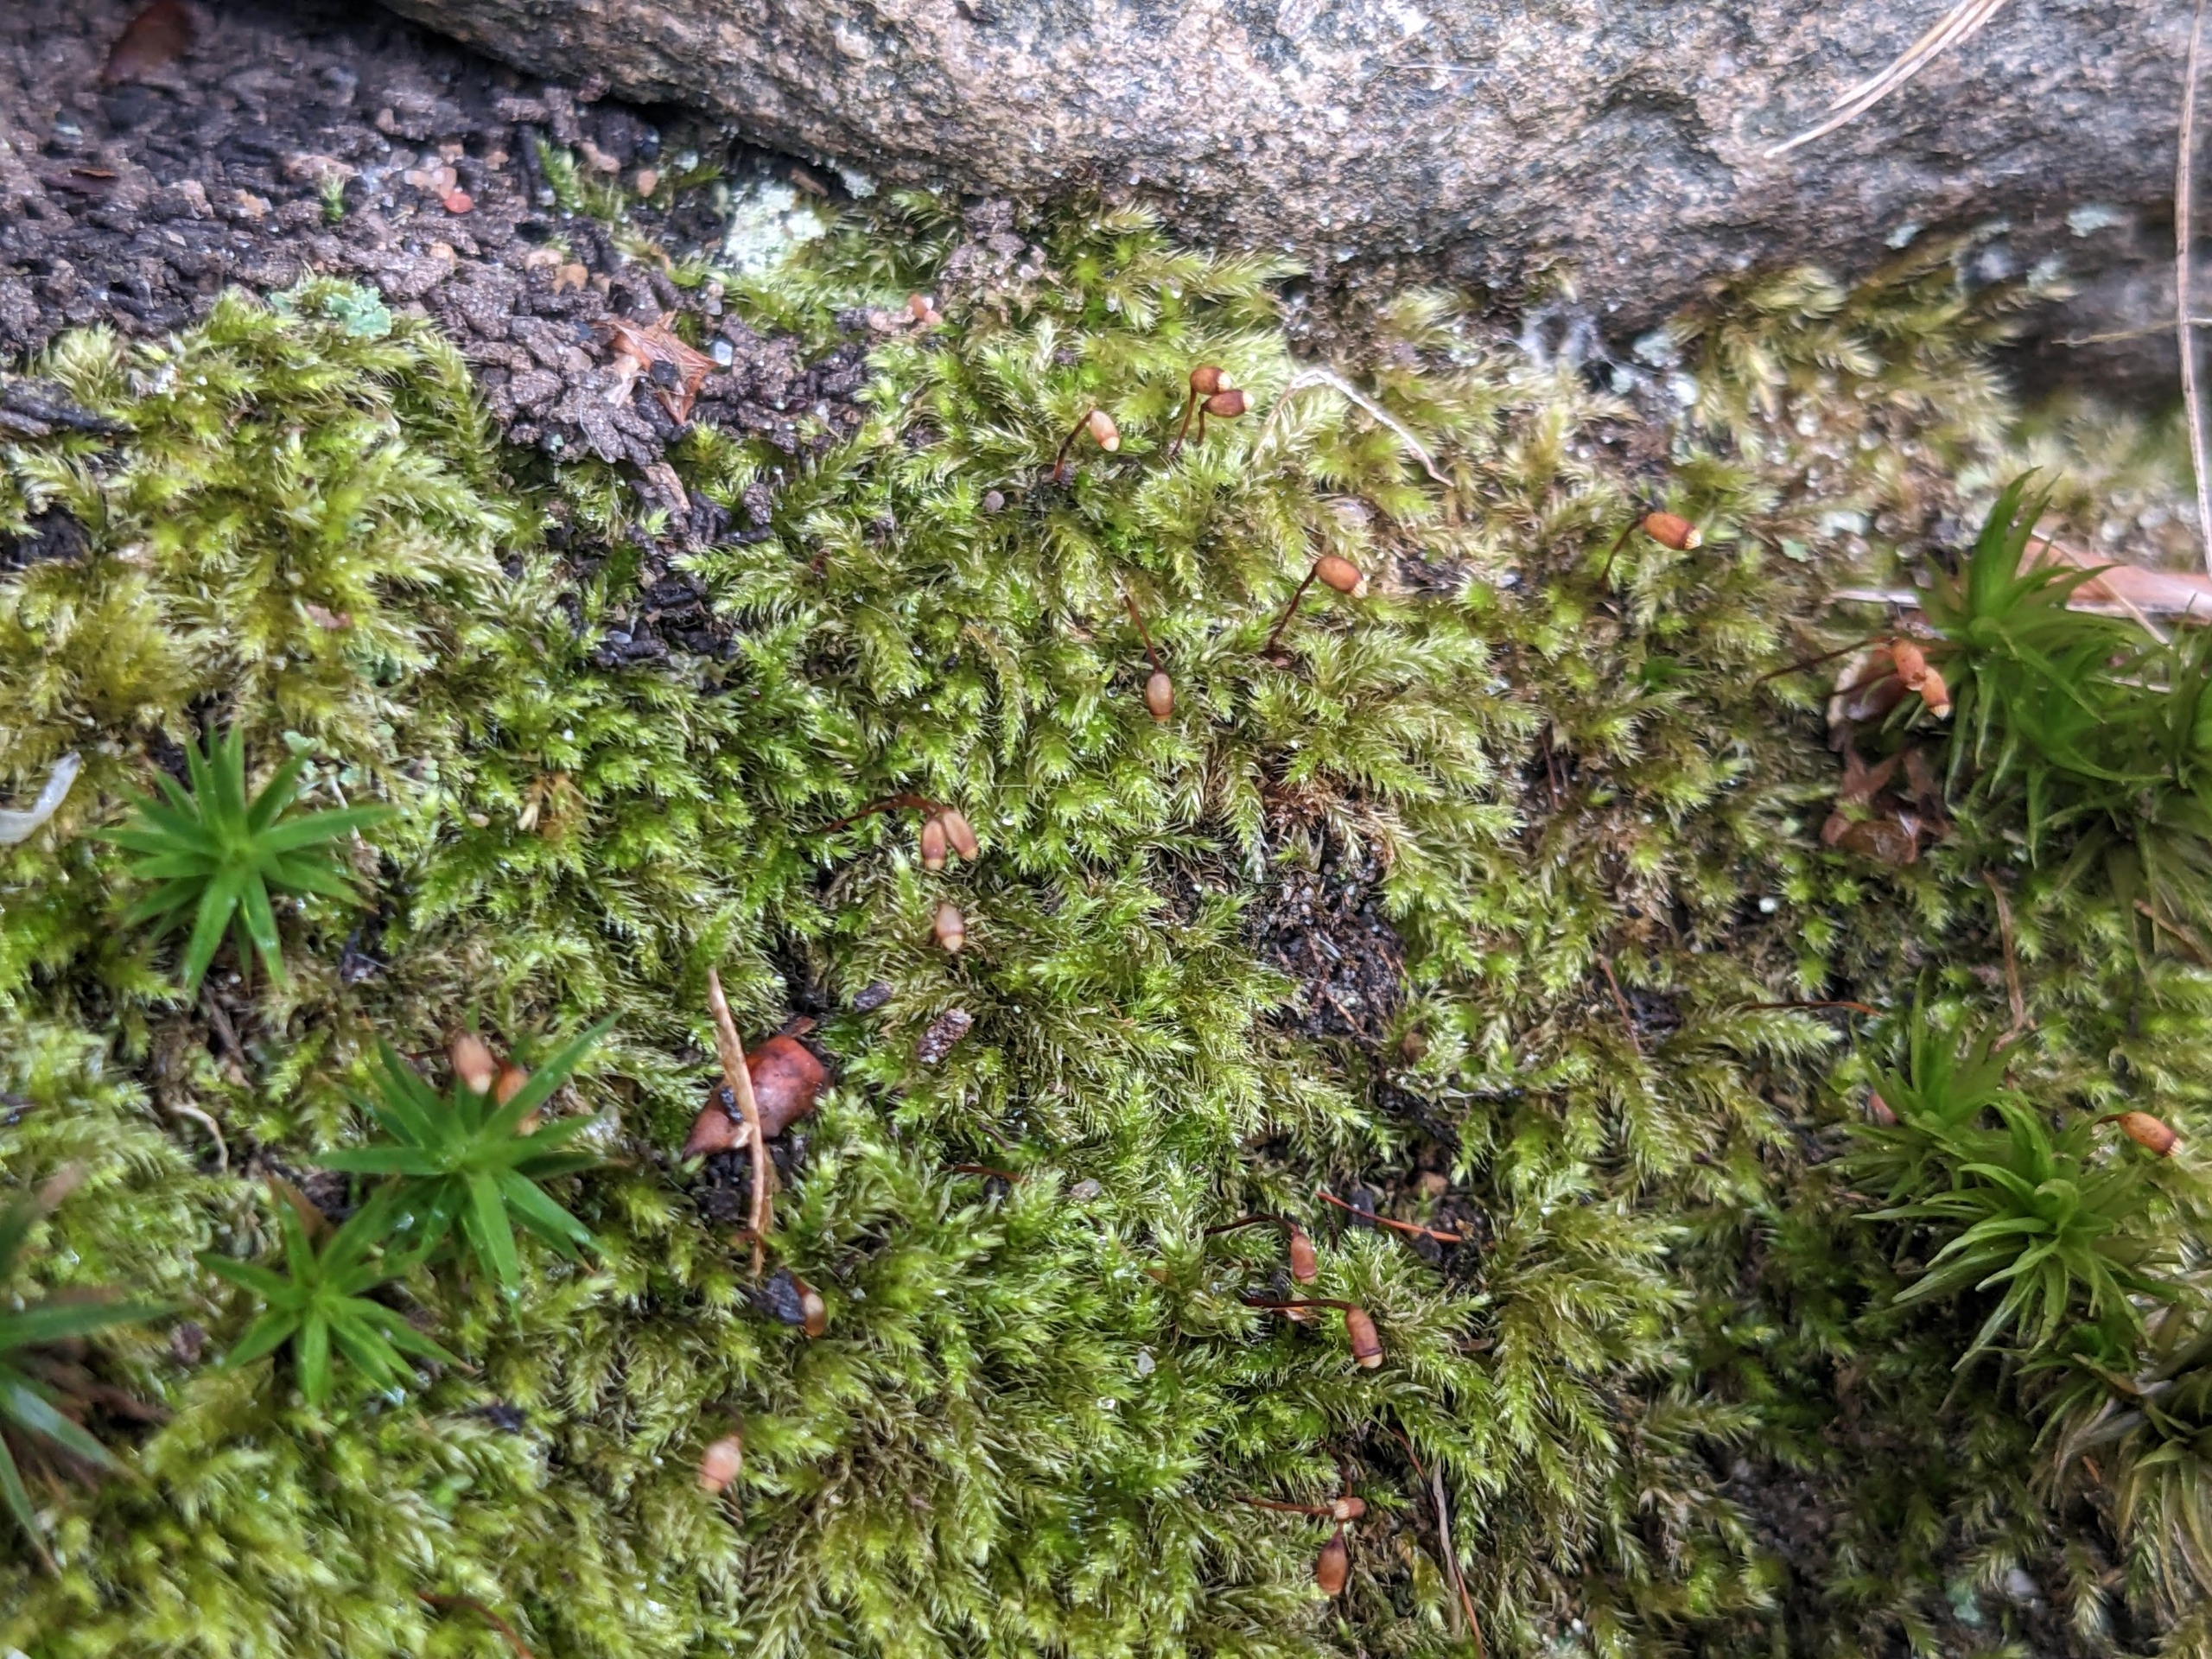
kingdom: Plantae
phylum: Bryophyta
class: Bryopsida
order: Hypnales
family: Brachytheciaceae
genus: Brachytheciastrum
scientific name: Brachytheciastrum velutinum
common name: Fløjls-kortkapsel
